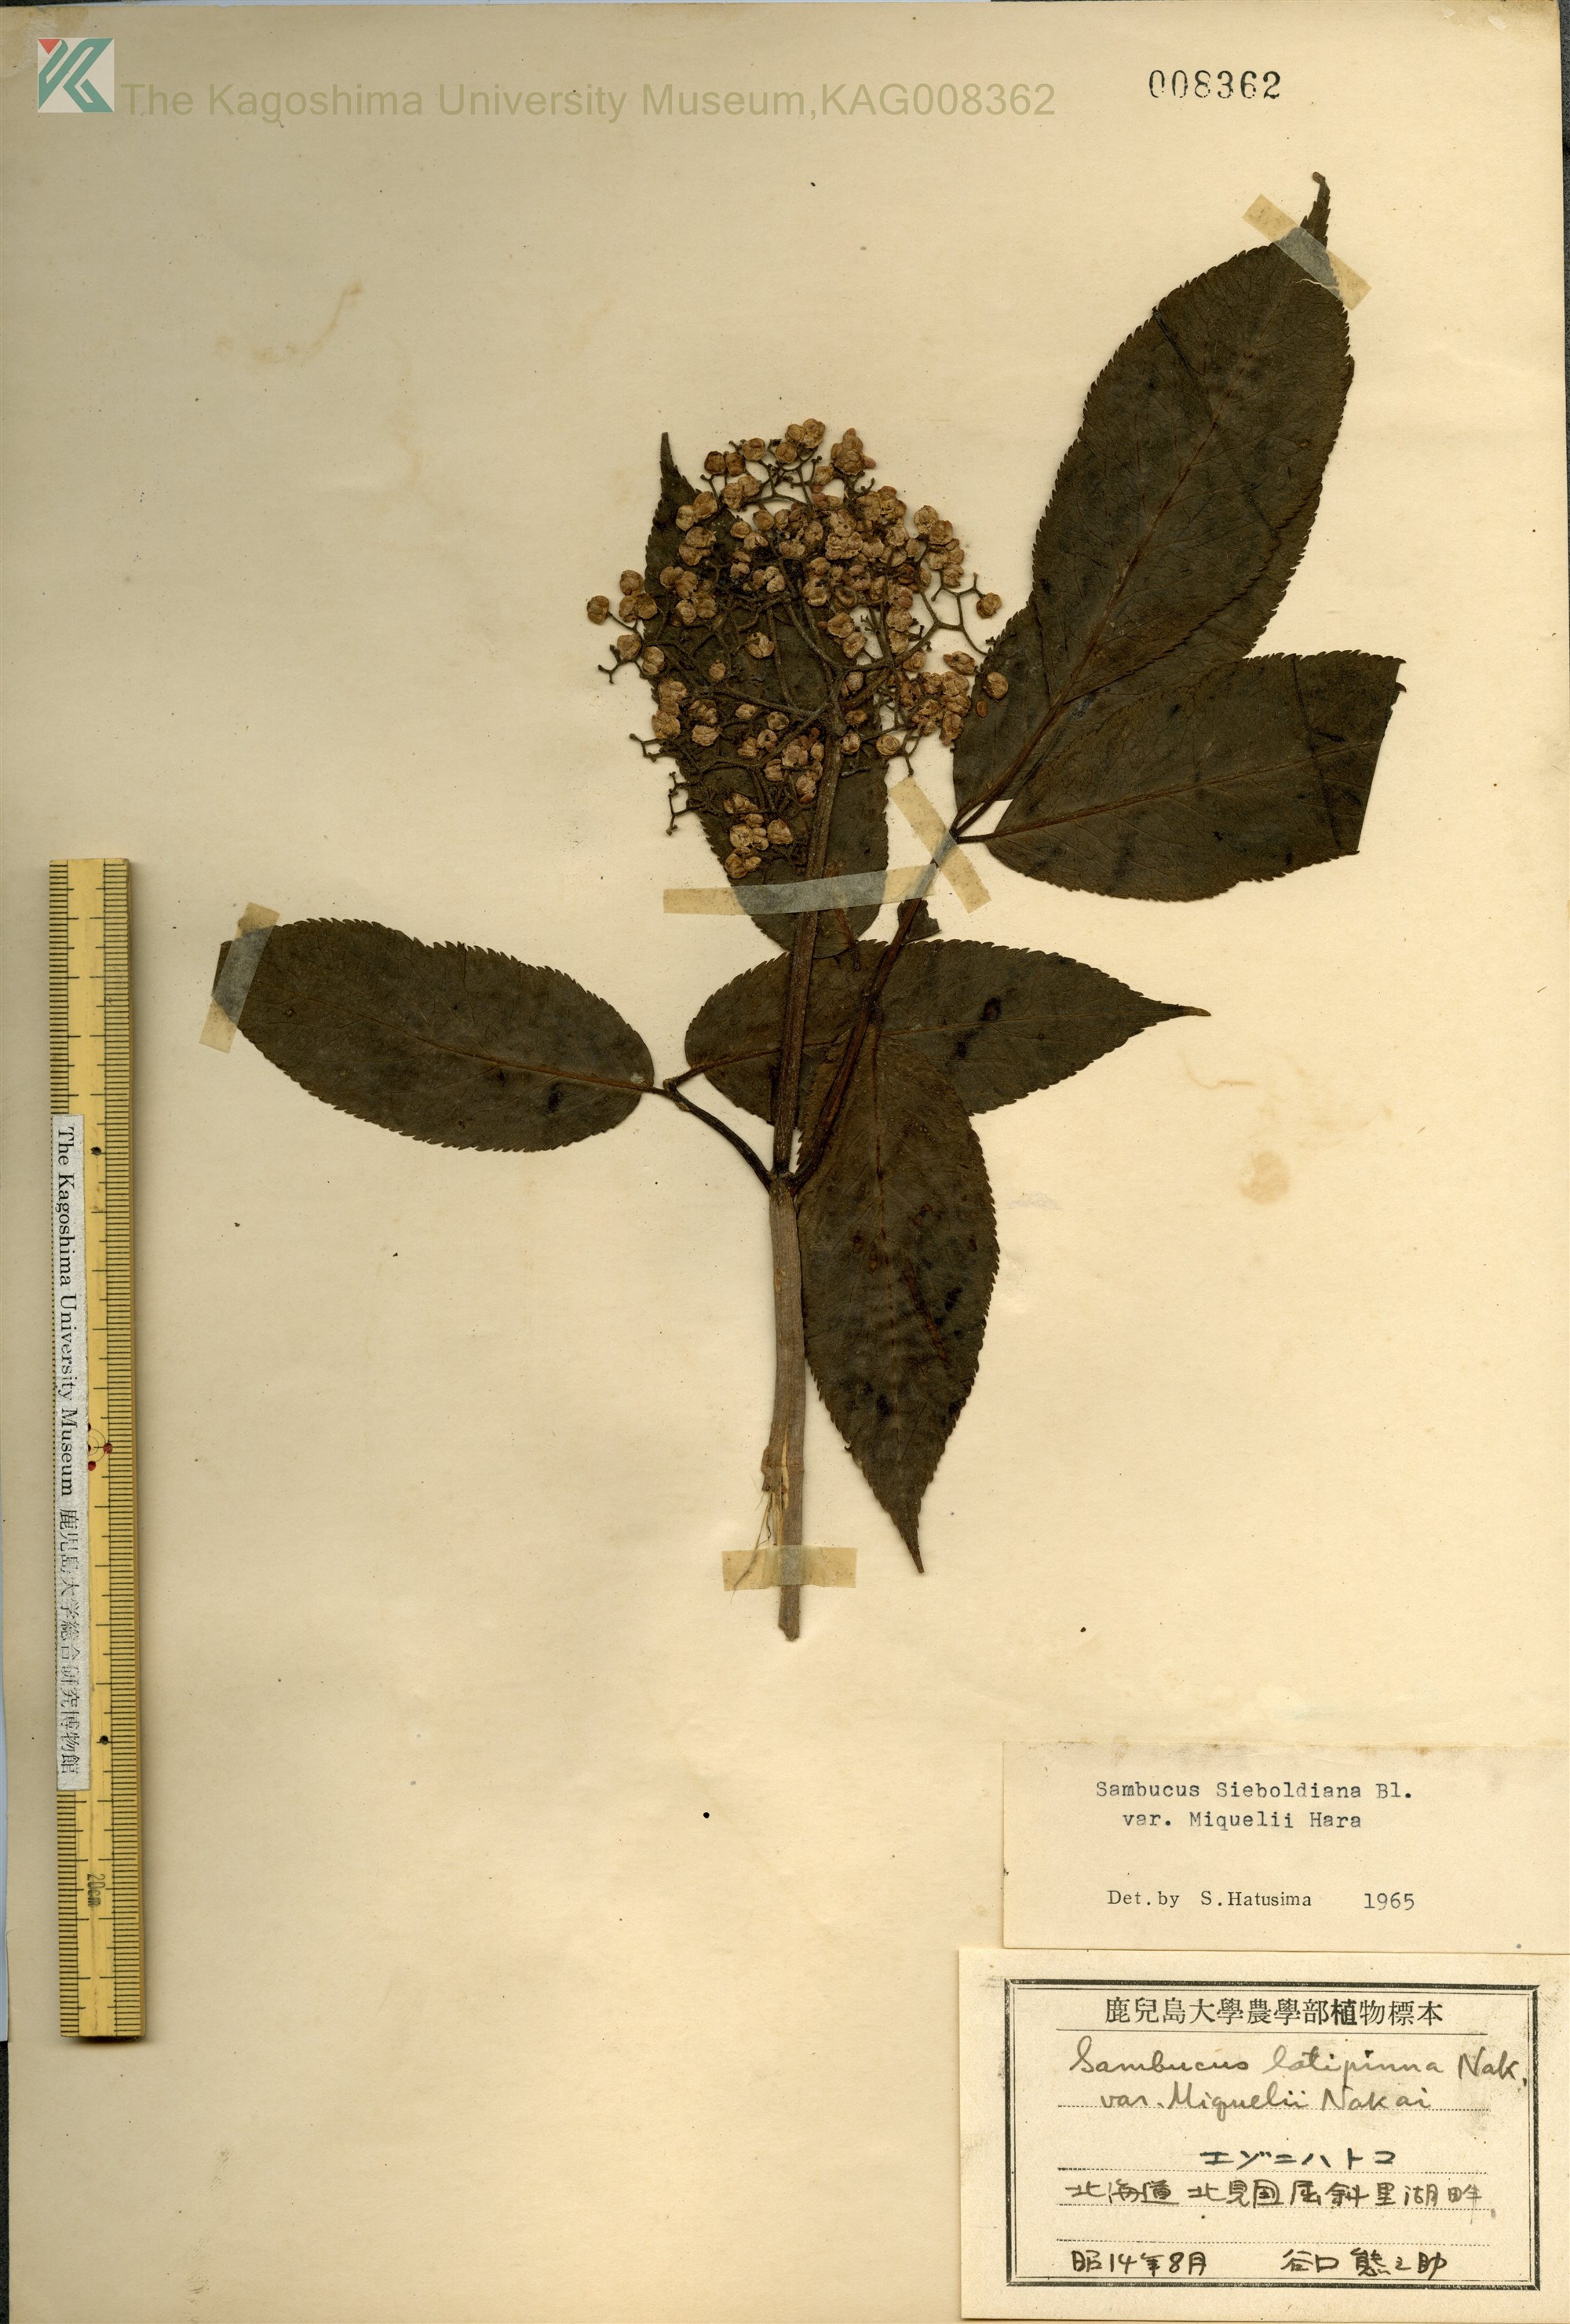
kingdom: Plantae
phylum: Tracheophyta
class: Magnoliopsida
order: Dipsacales
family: Viburnaceae
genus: Sambucus
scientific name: Sambucus kamtschatica
